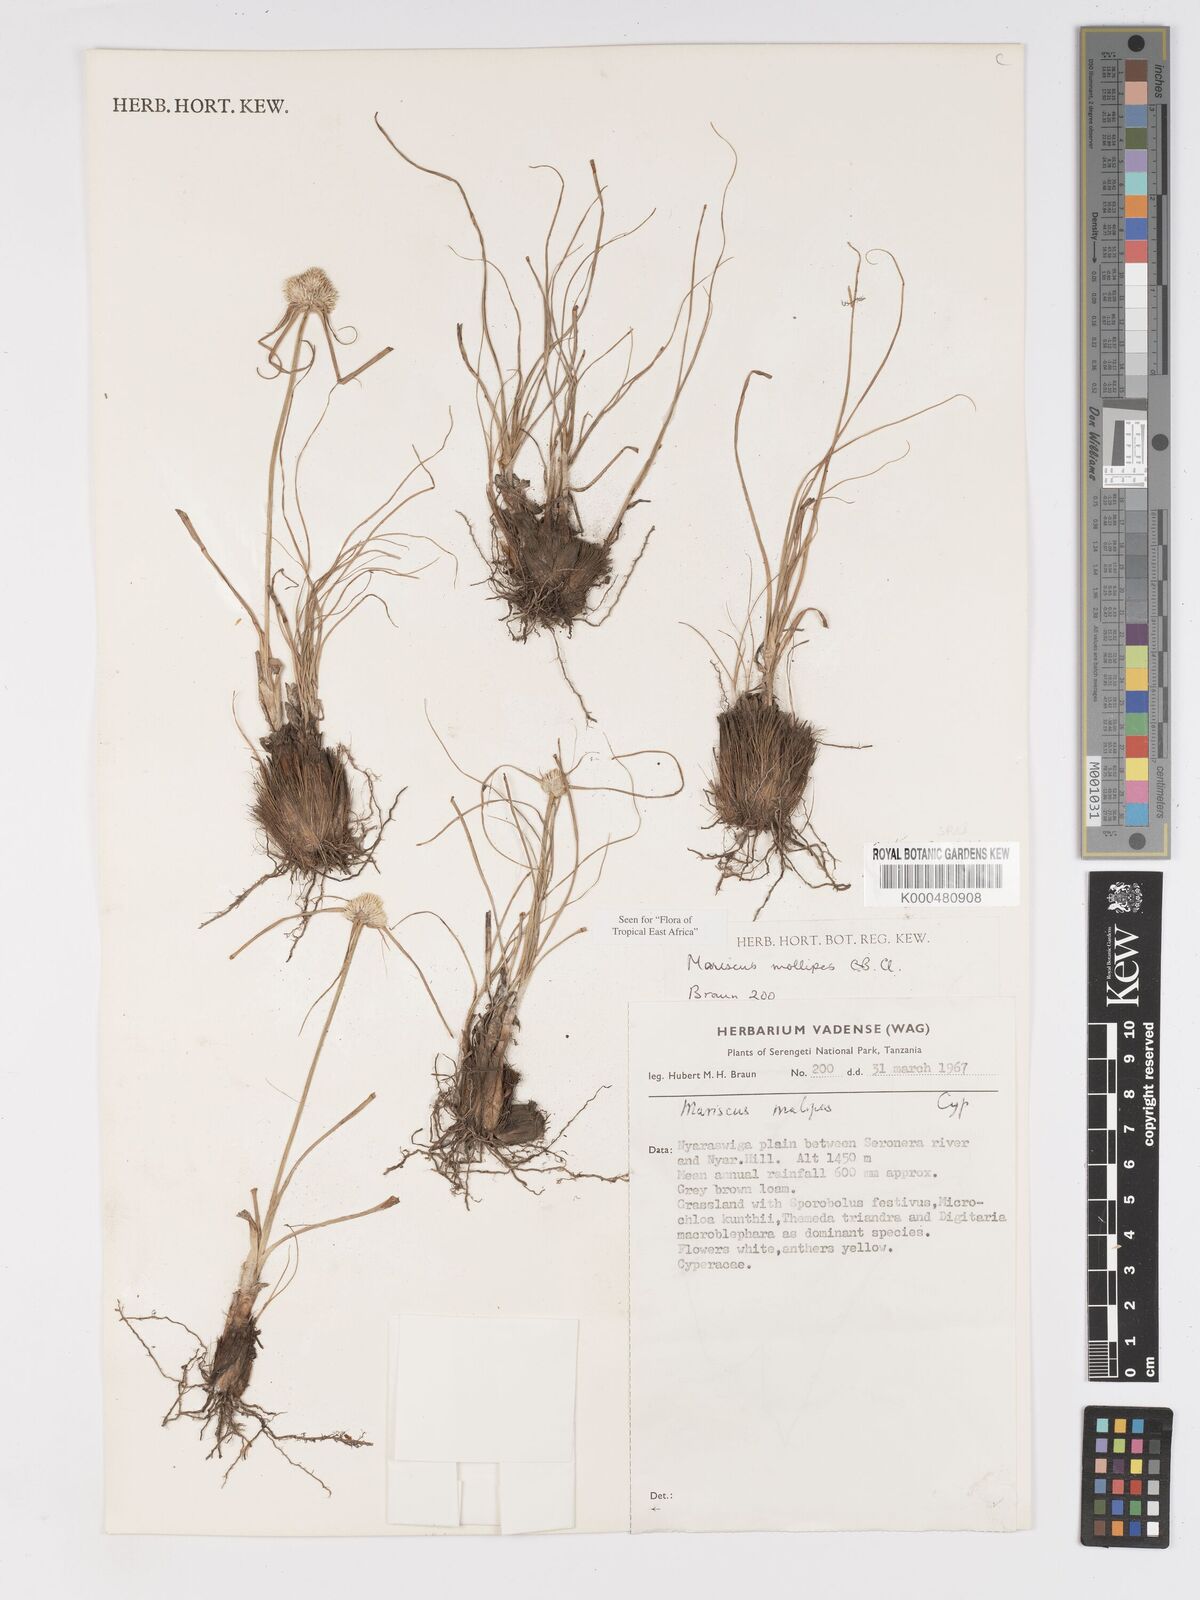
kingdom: Plantae
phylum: Tracheophyta
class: Liliopsida
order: Poales
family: Cyperaceae
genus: Cyperus
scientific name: Cyperus mollipes
